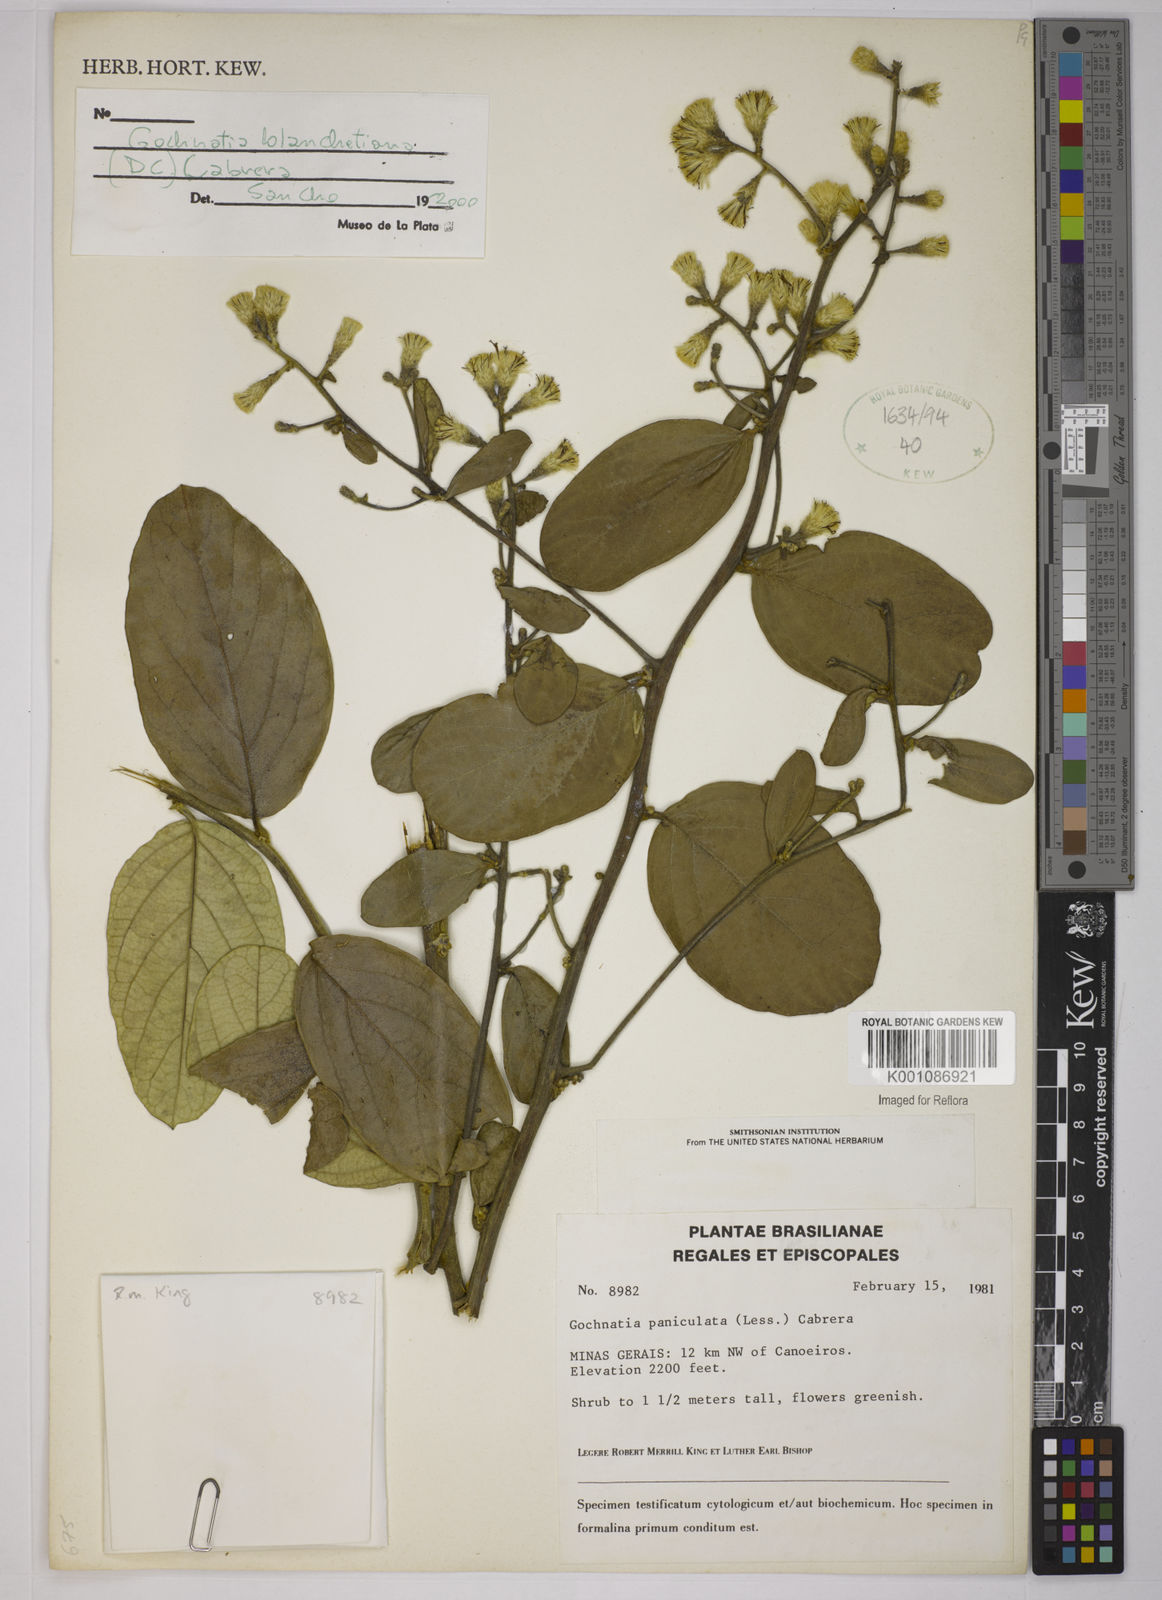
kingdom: Plantae
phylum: Tracheophyta
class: Magnoliopsida
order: Asterales
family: Asteraceae
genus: Moquiniastrum
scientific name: Moquiniastrum blanchetianum
